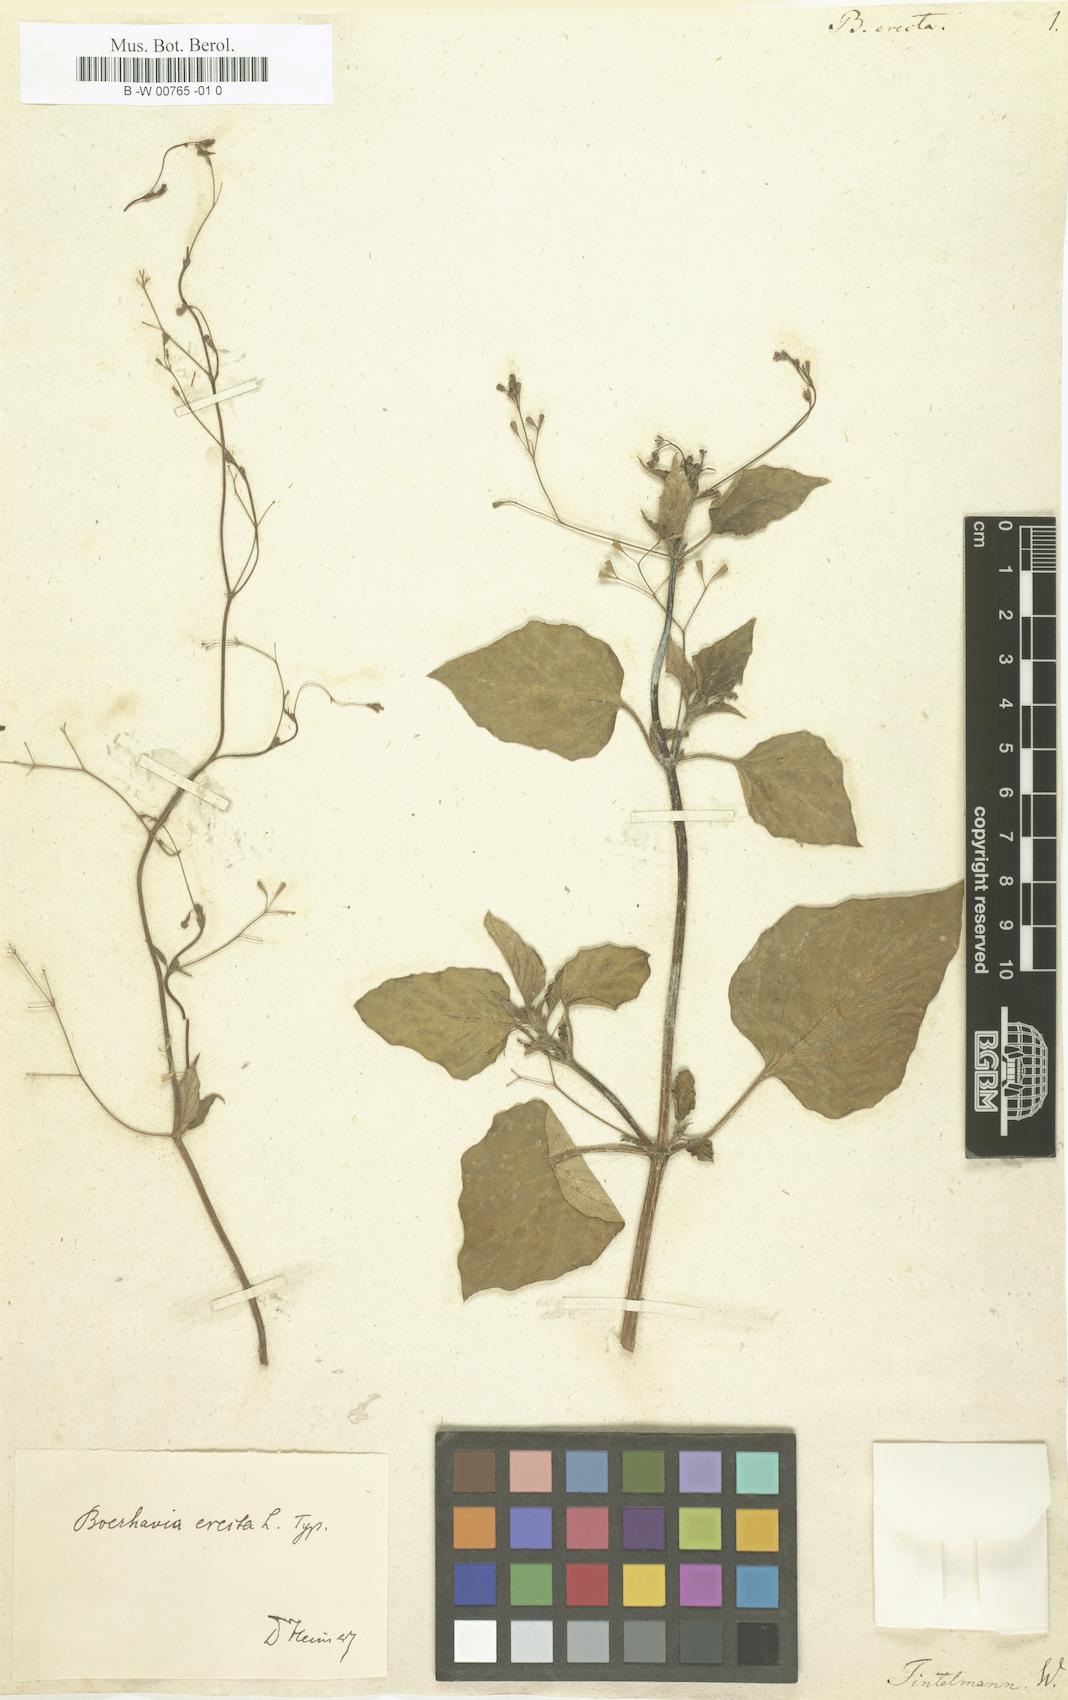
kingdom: Plantae
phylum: Tracheophyta
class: Magnoliopsida
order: Caryophyllales
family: Nyctaginaceae
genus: Boerhavia
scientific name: Boerhavia Boerhaavia erecta
